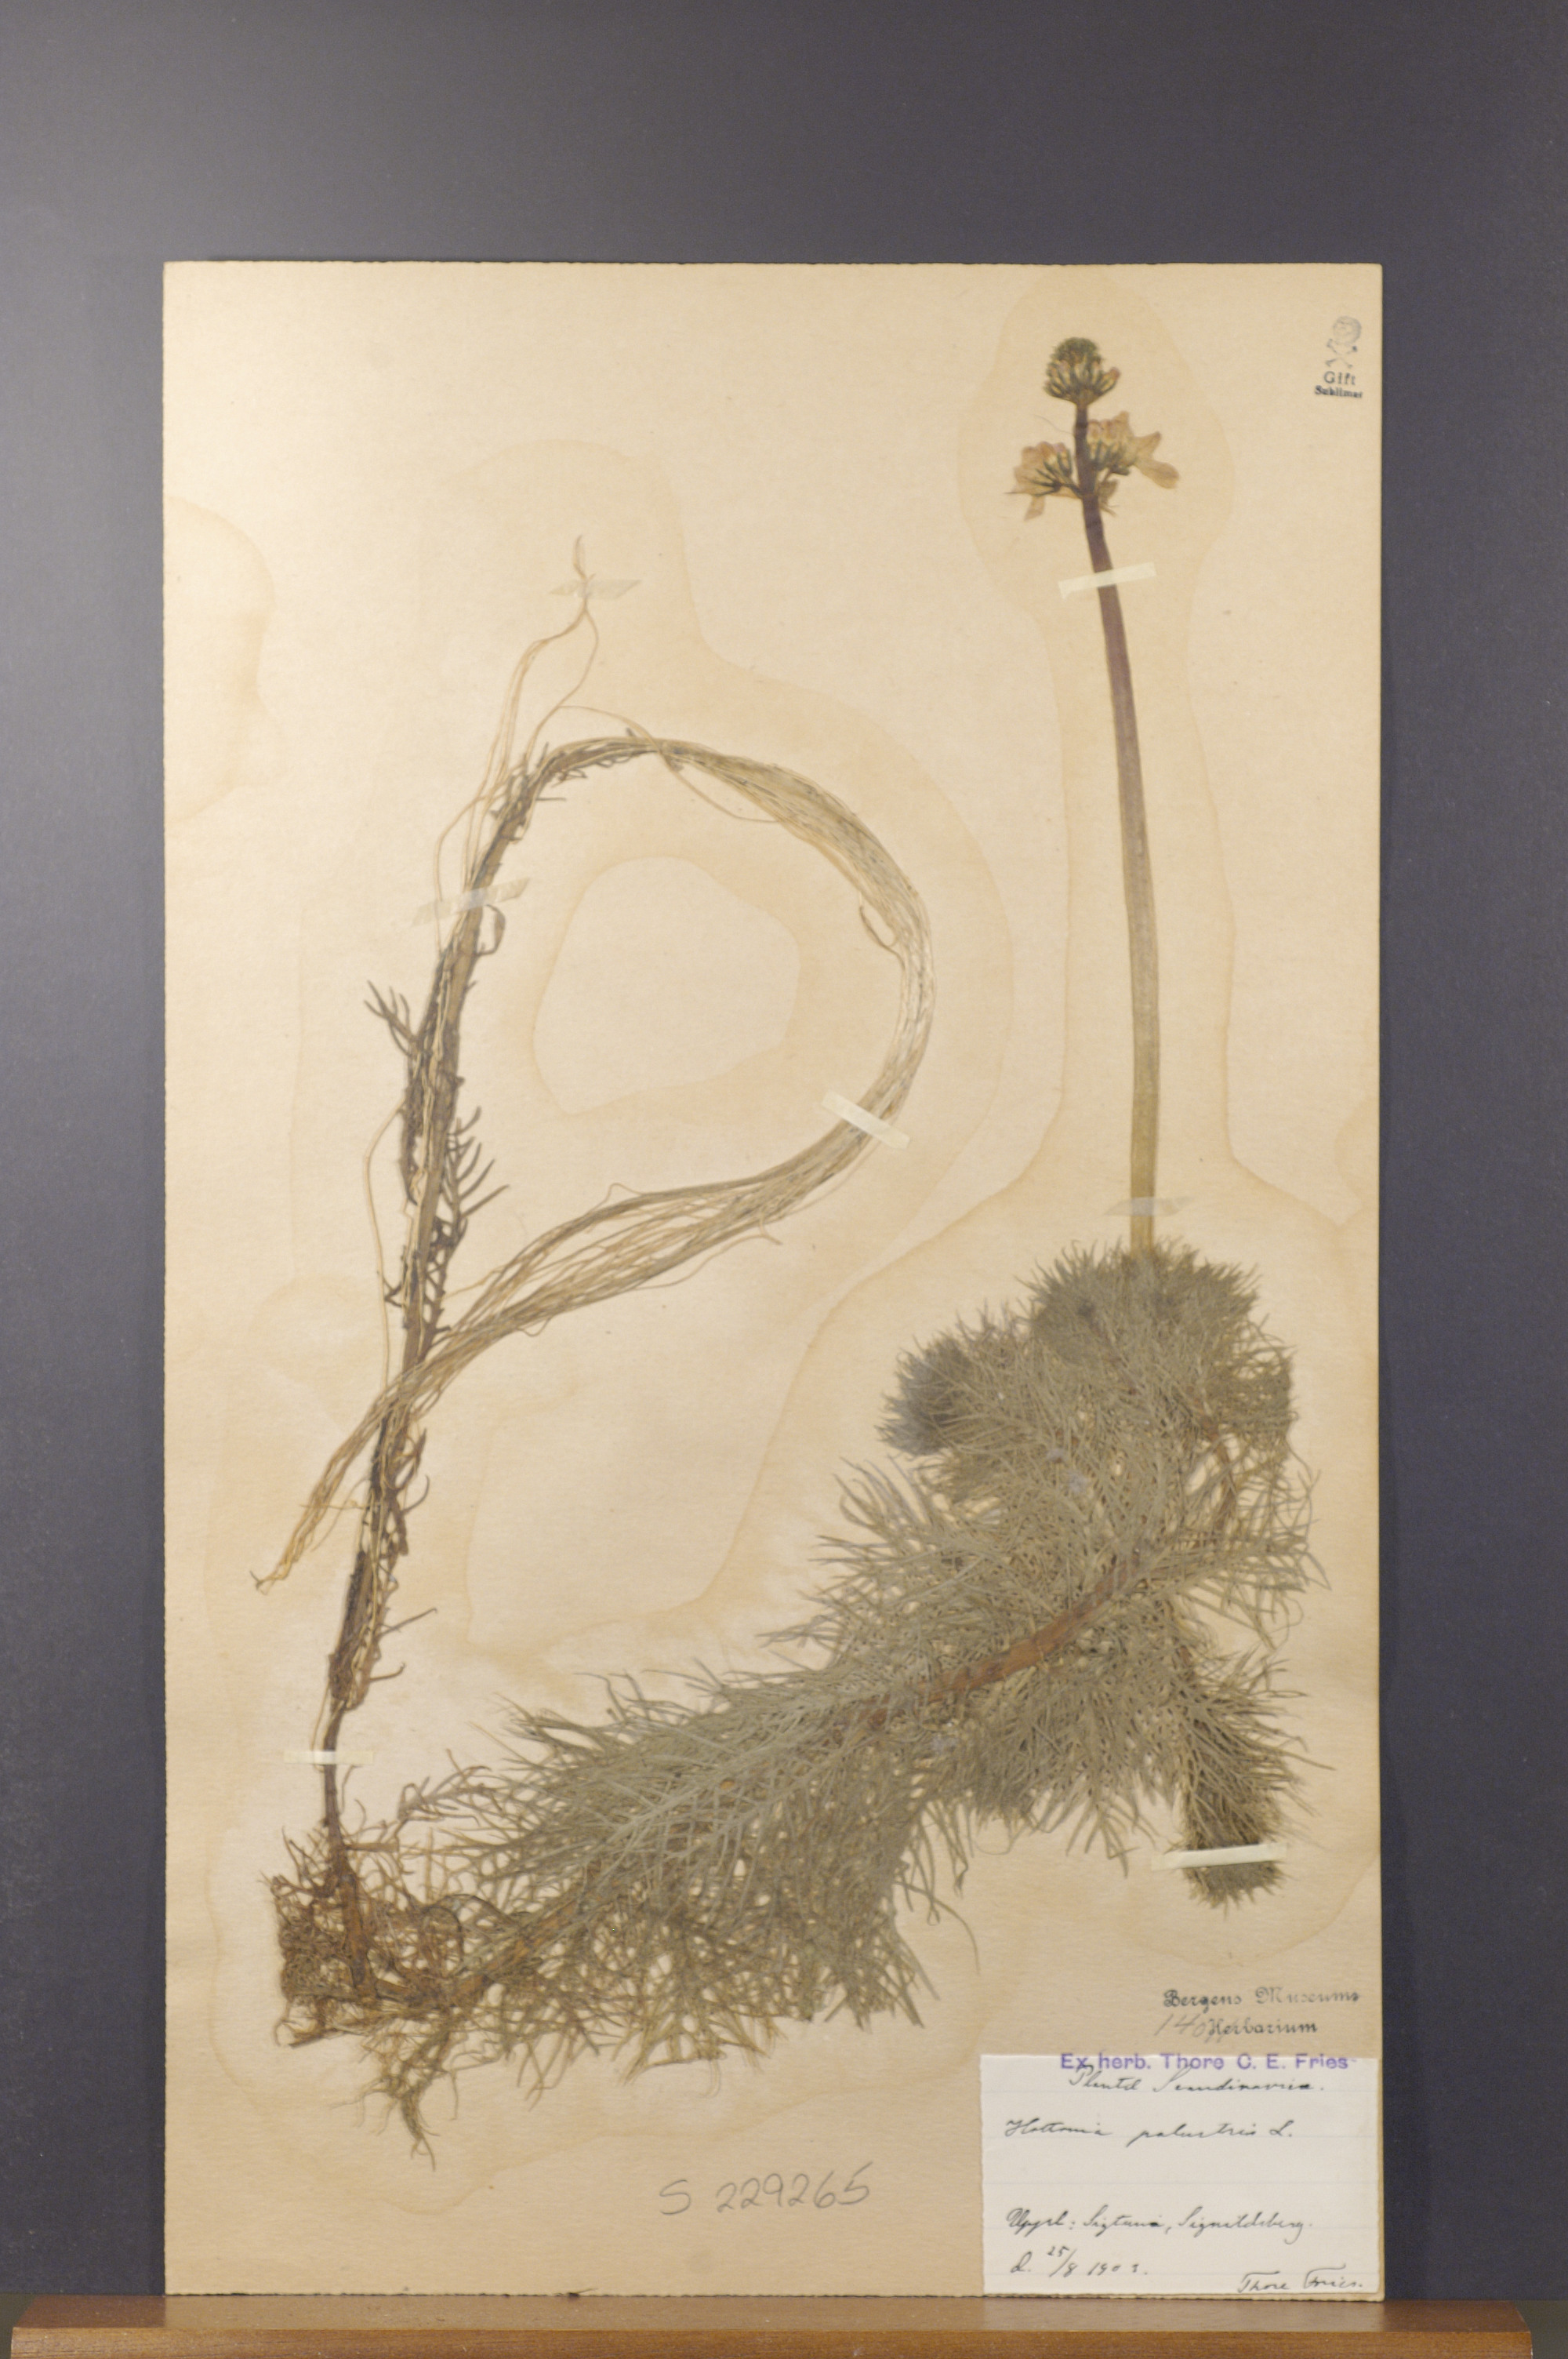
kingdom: Plantae
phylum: Tracheophyta
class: Magnoliopsida
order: Ericales
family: Primulaceae
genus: Hottonia
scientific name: Hottonia palustris
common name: Water-violet
